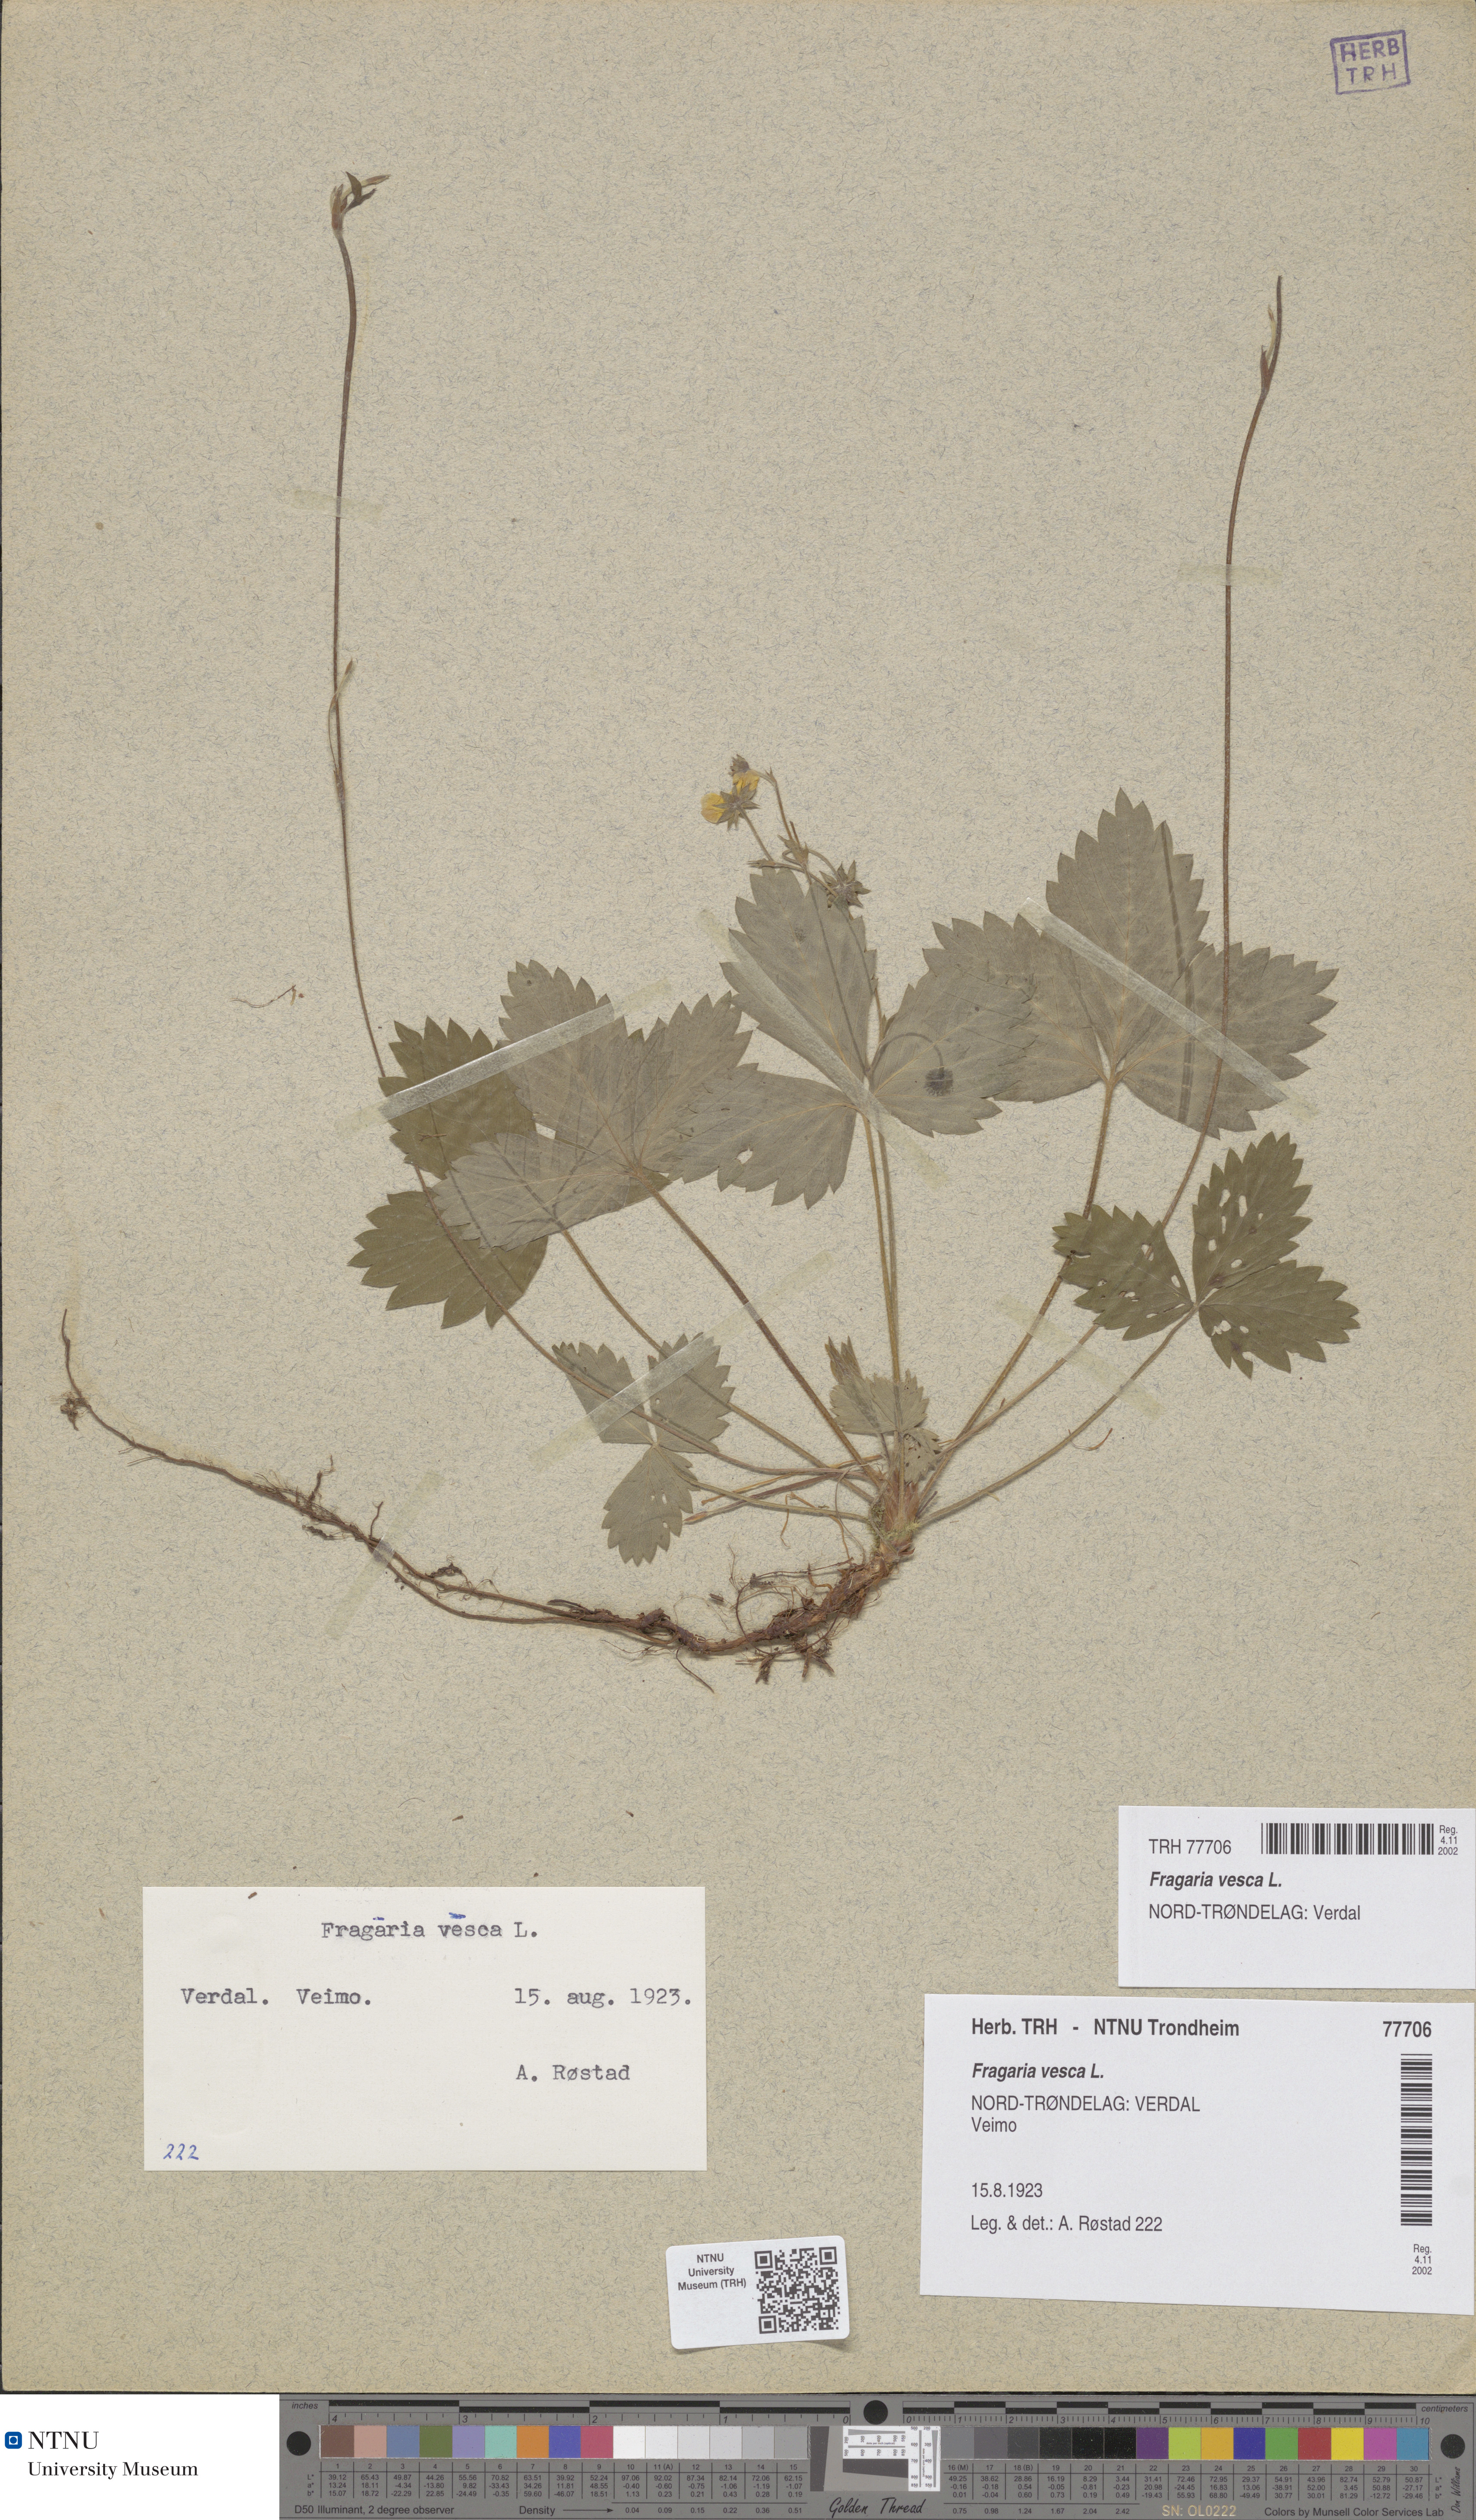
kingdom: Plantae
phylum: Tracheophyta
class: Magnoliopsida
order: Rosales
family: Rosaceae
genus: Fragaria
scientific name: Fragaria vesca
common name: Wild strawberry
